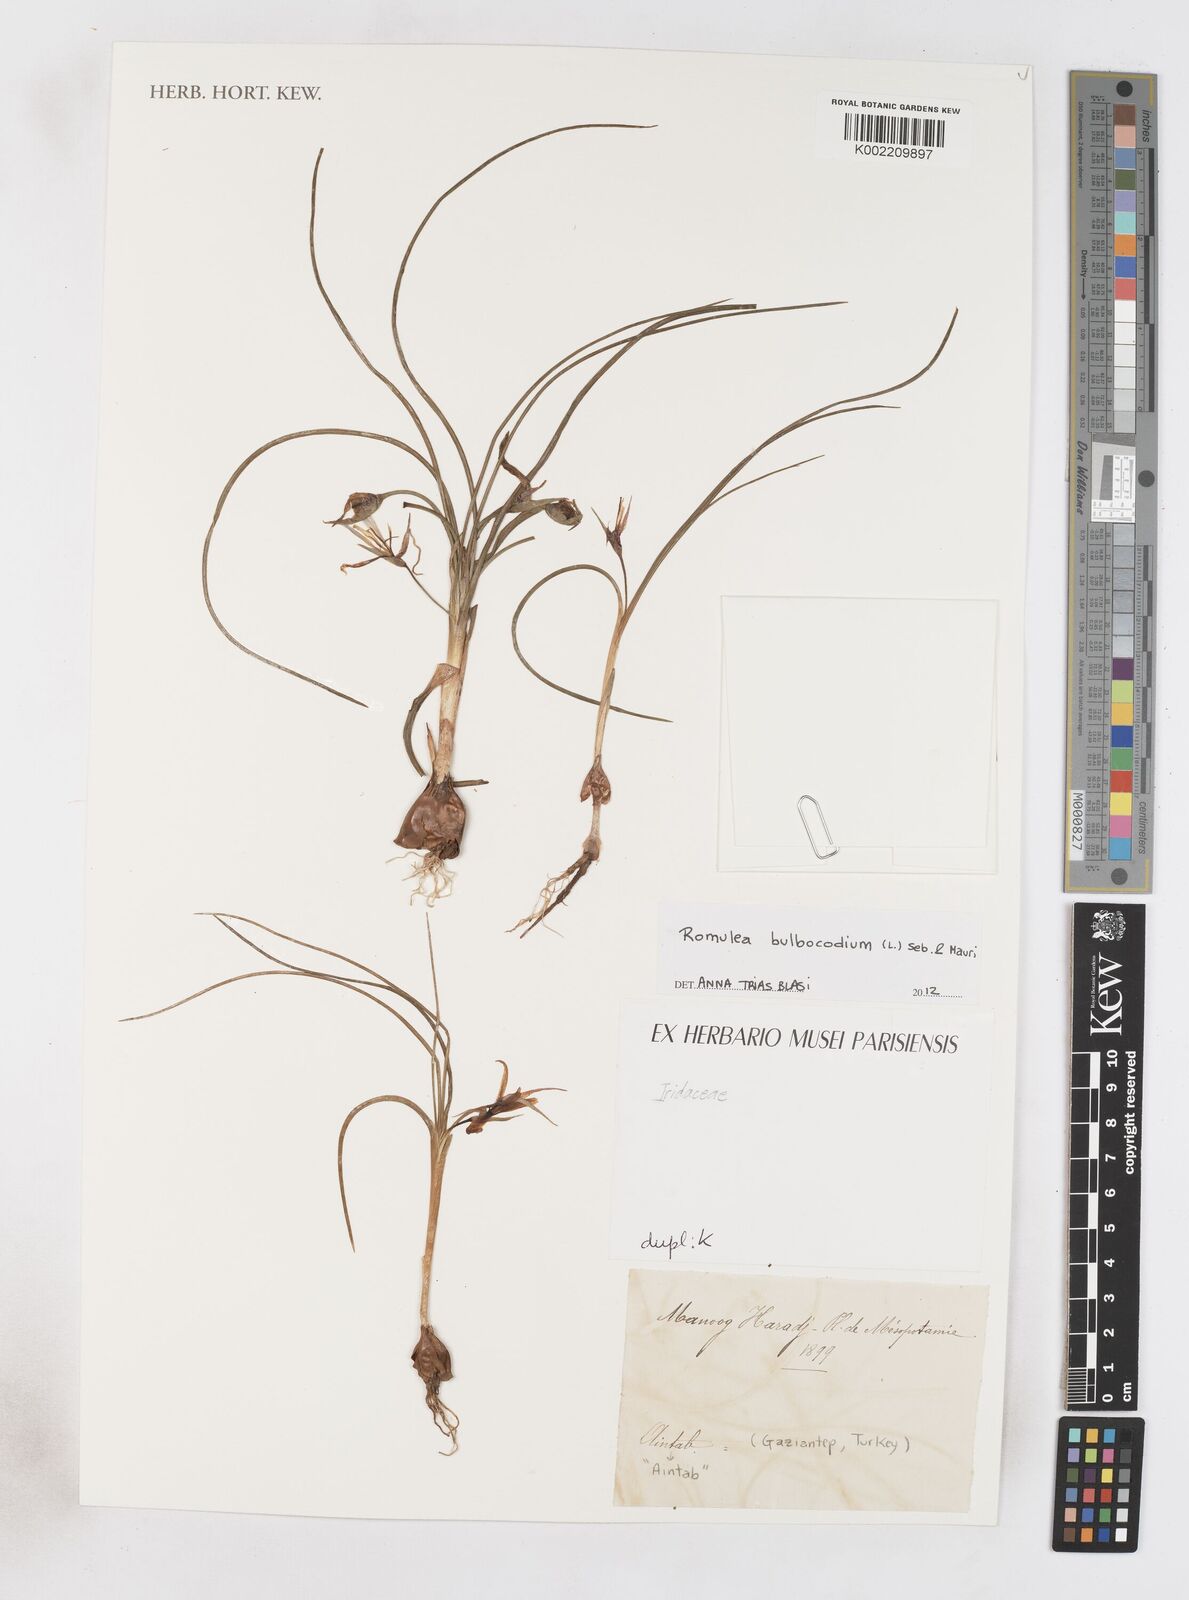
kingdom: Plantae
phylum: Tracheophyta
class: Liliopsida
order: Asparagales
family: Iridaceae
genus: Romulea
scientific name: Romulea bulbocodium
